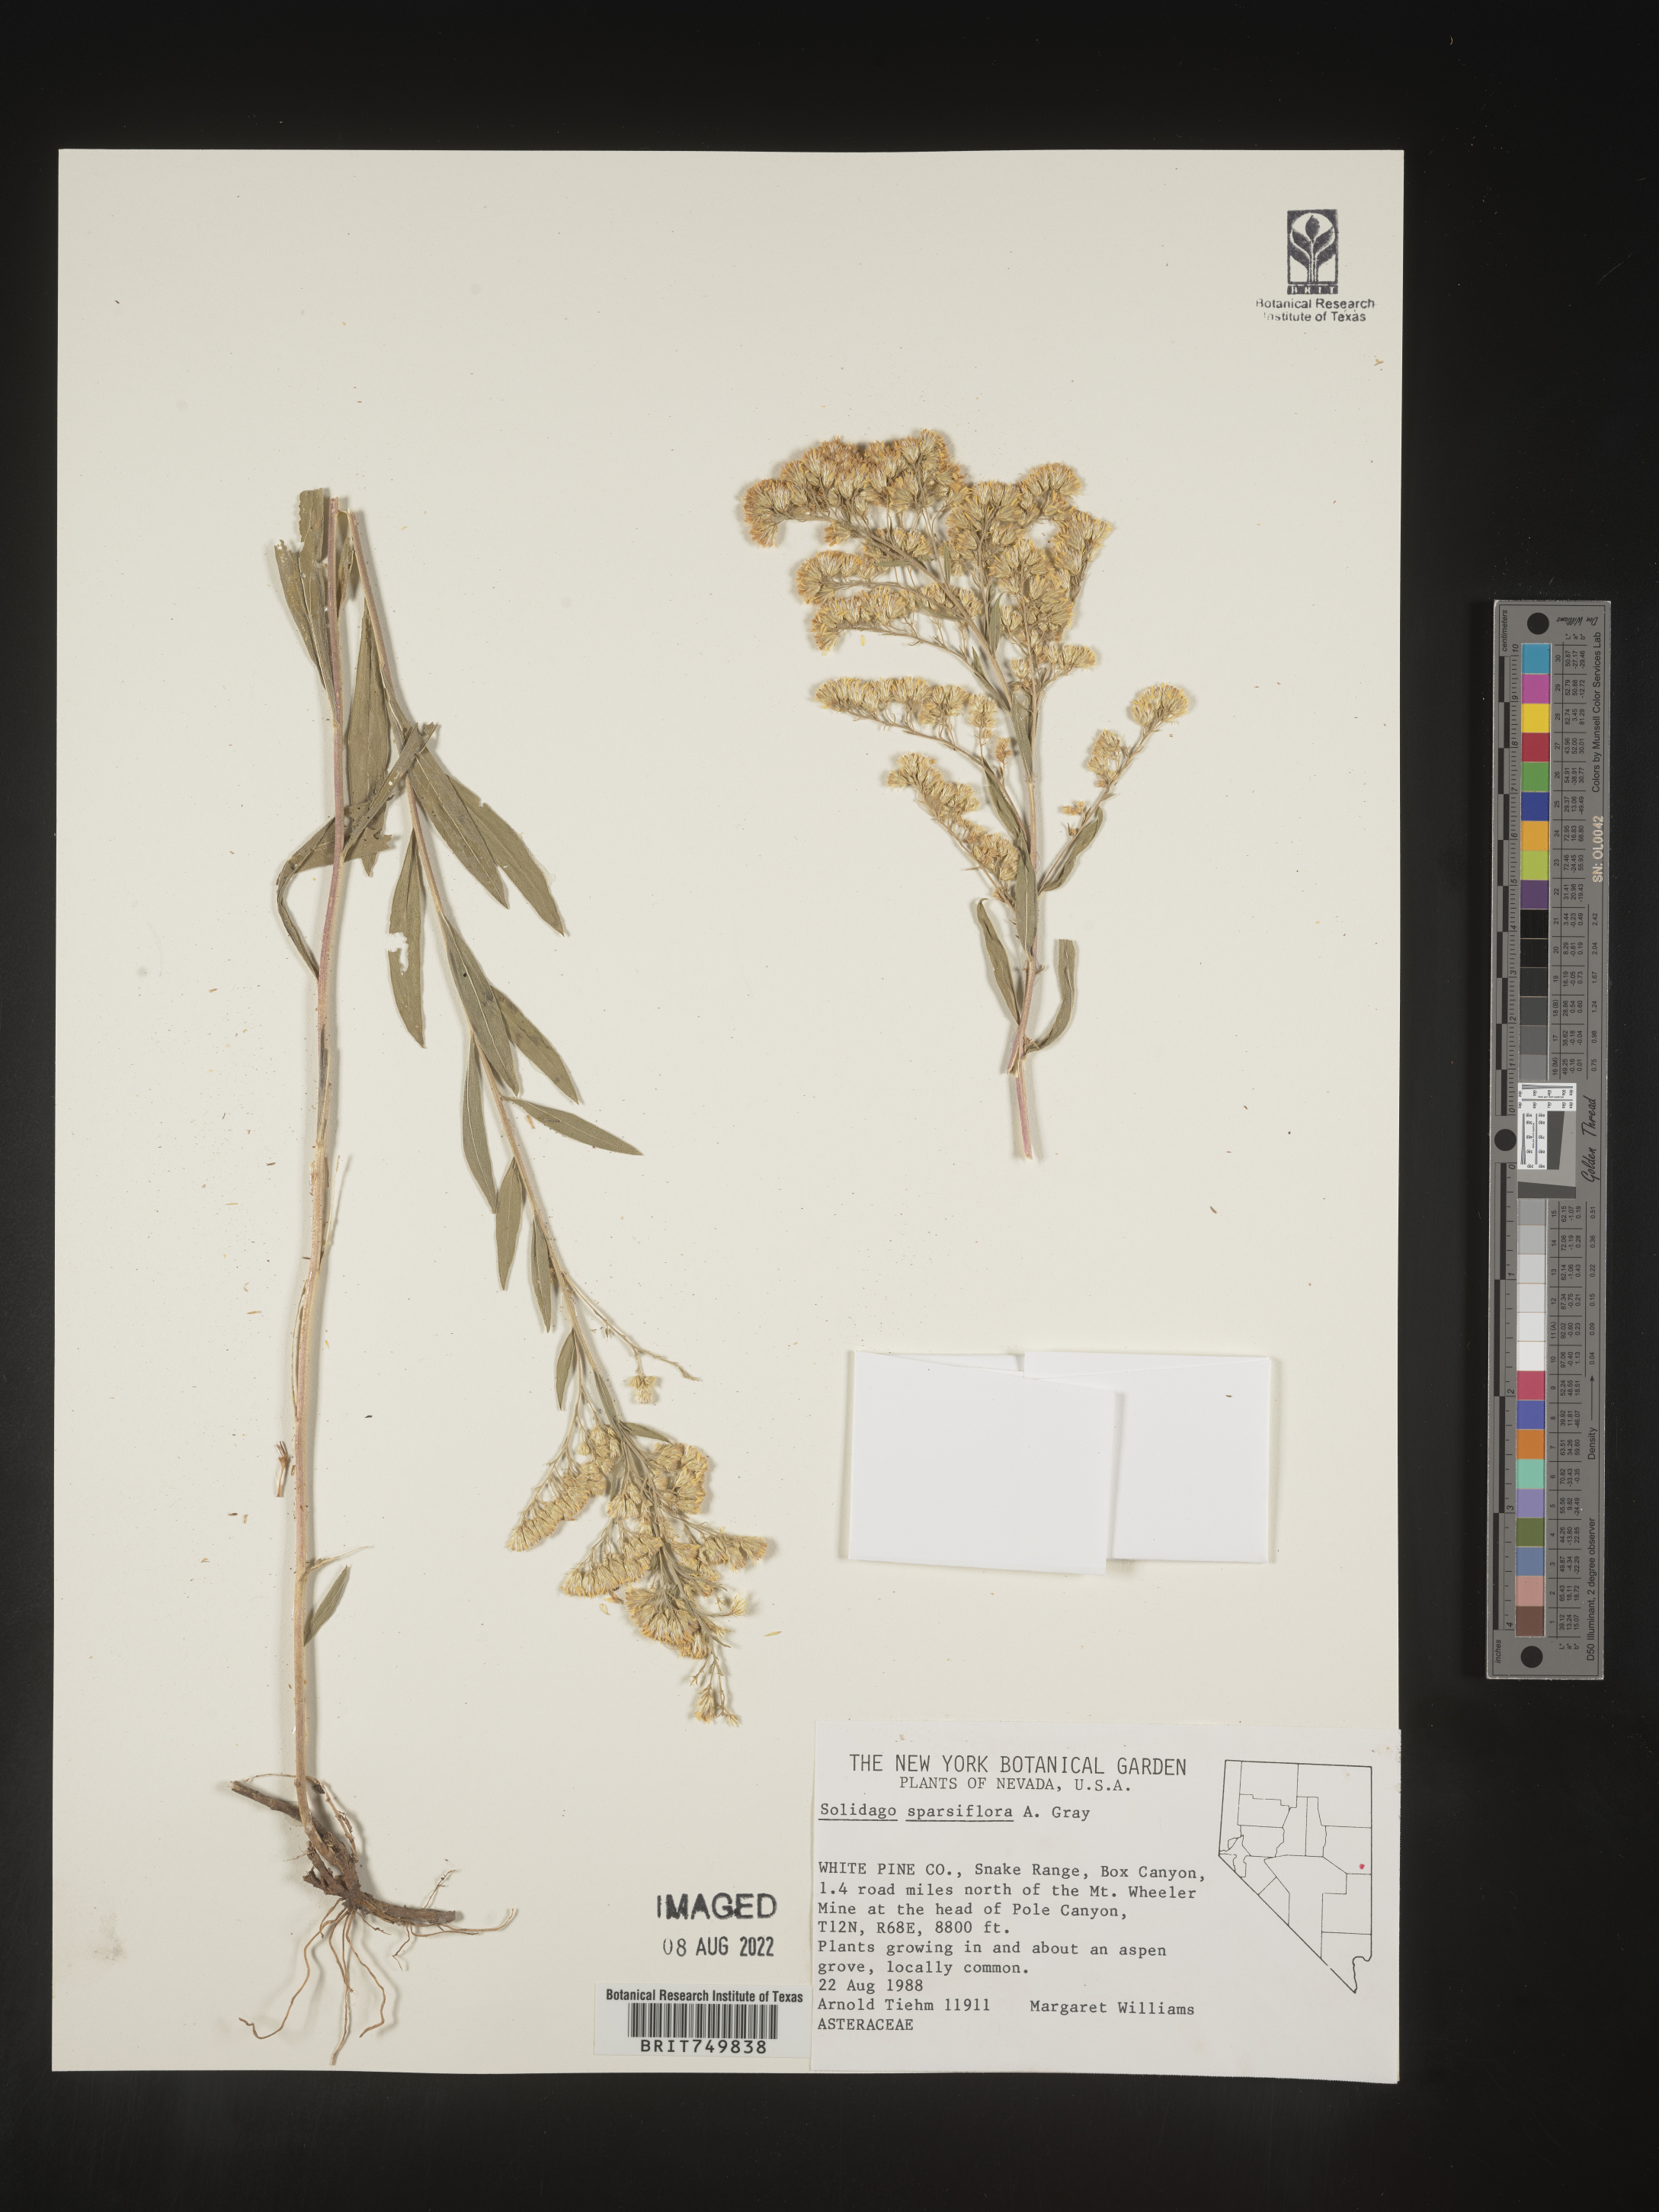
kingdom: Plantae
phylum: Tracheophyta
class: Magnoliopsida
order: Asterales
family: Asteraceae
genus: Solidago
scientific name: Solidago velutina
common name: Three-nerve goldenrod
